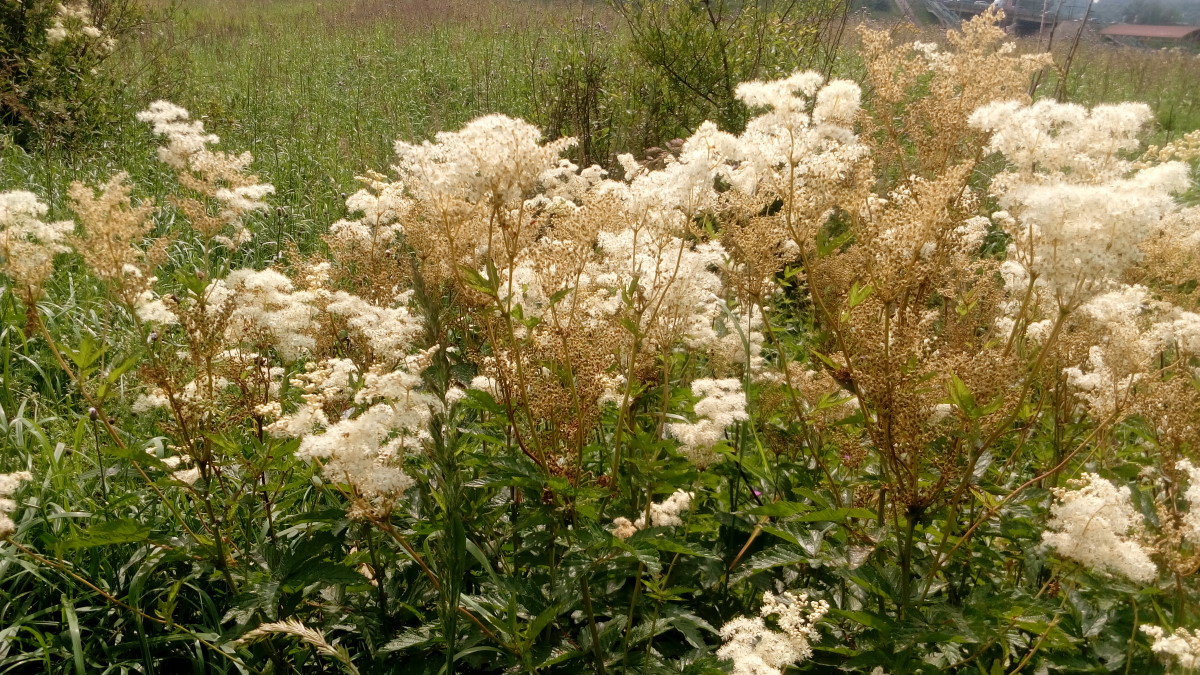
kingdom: Plantae
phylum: Tracheophyta
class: Magnoliopsida
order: Rosales
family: Rosaceae
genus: Filipendula
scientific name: Filipendula ulmaria
